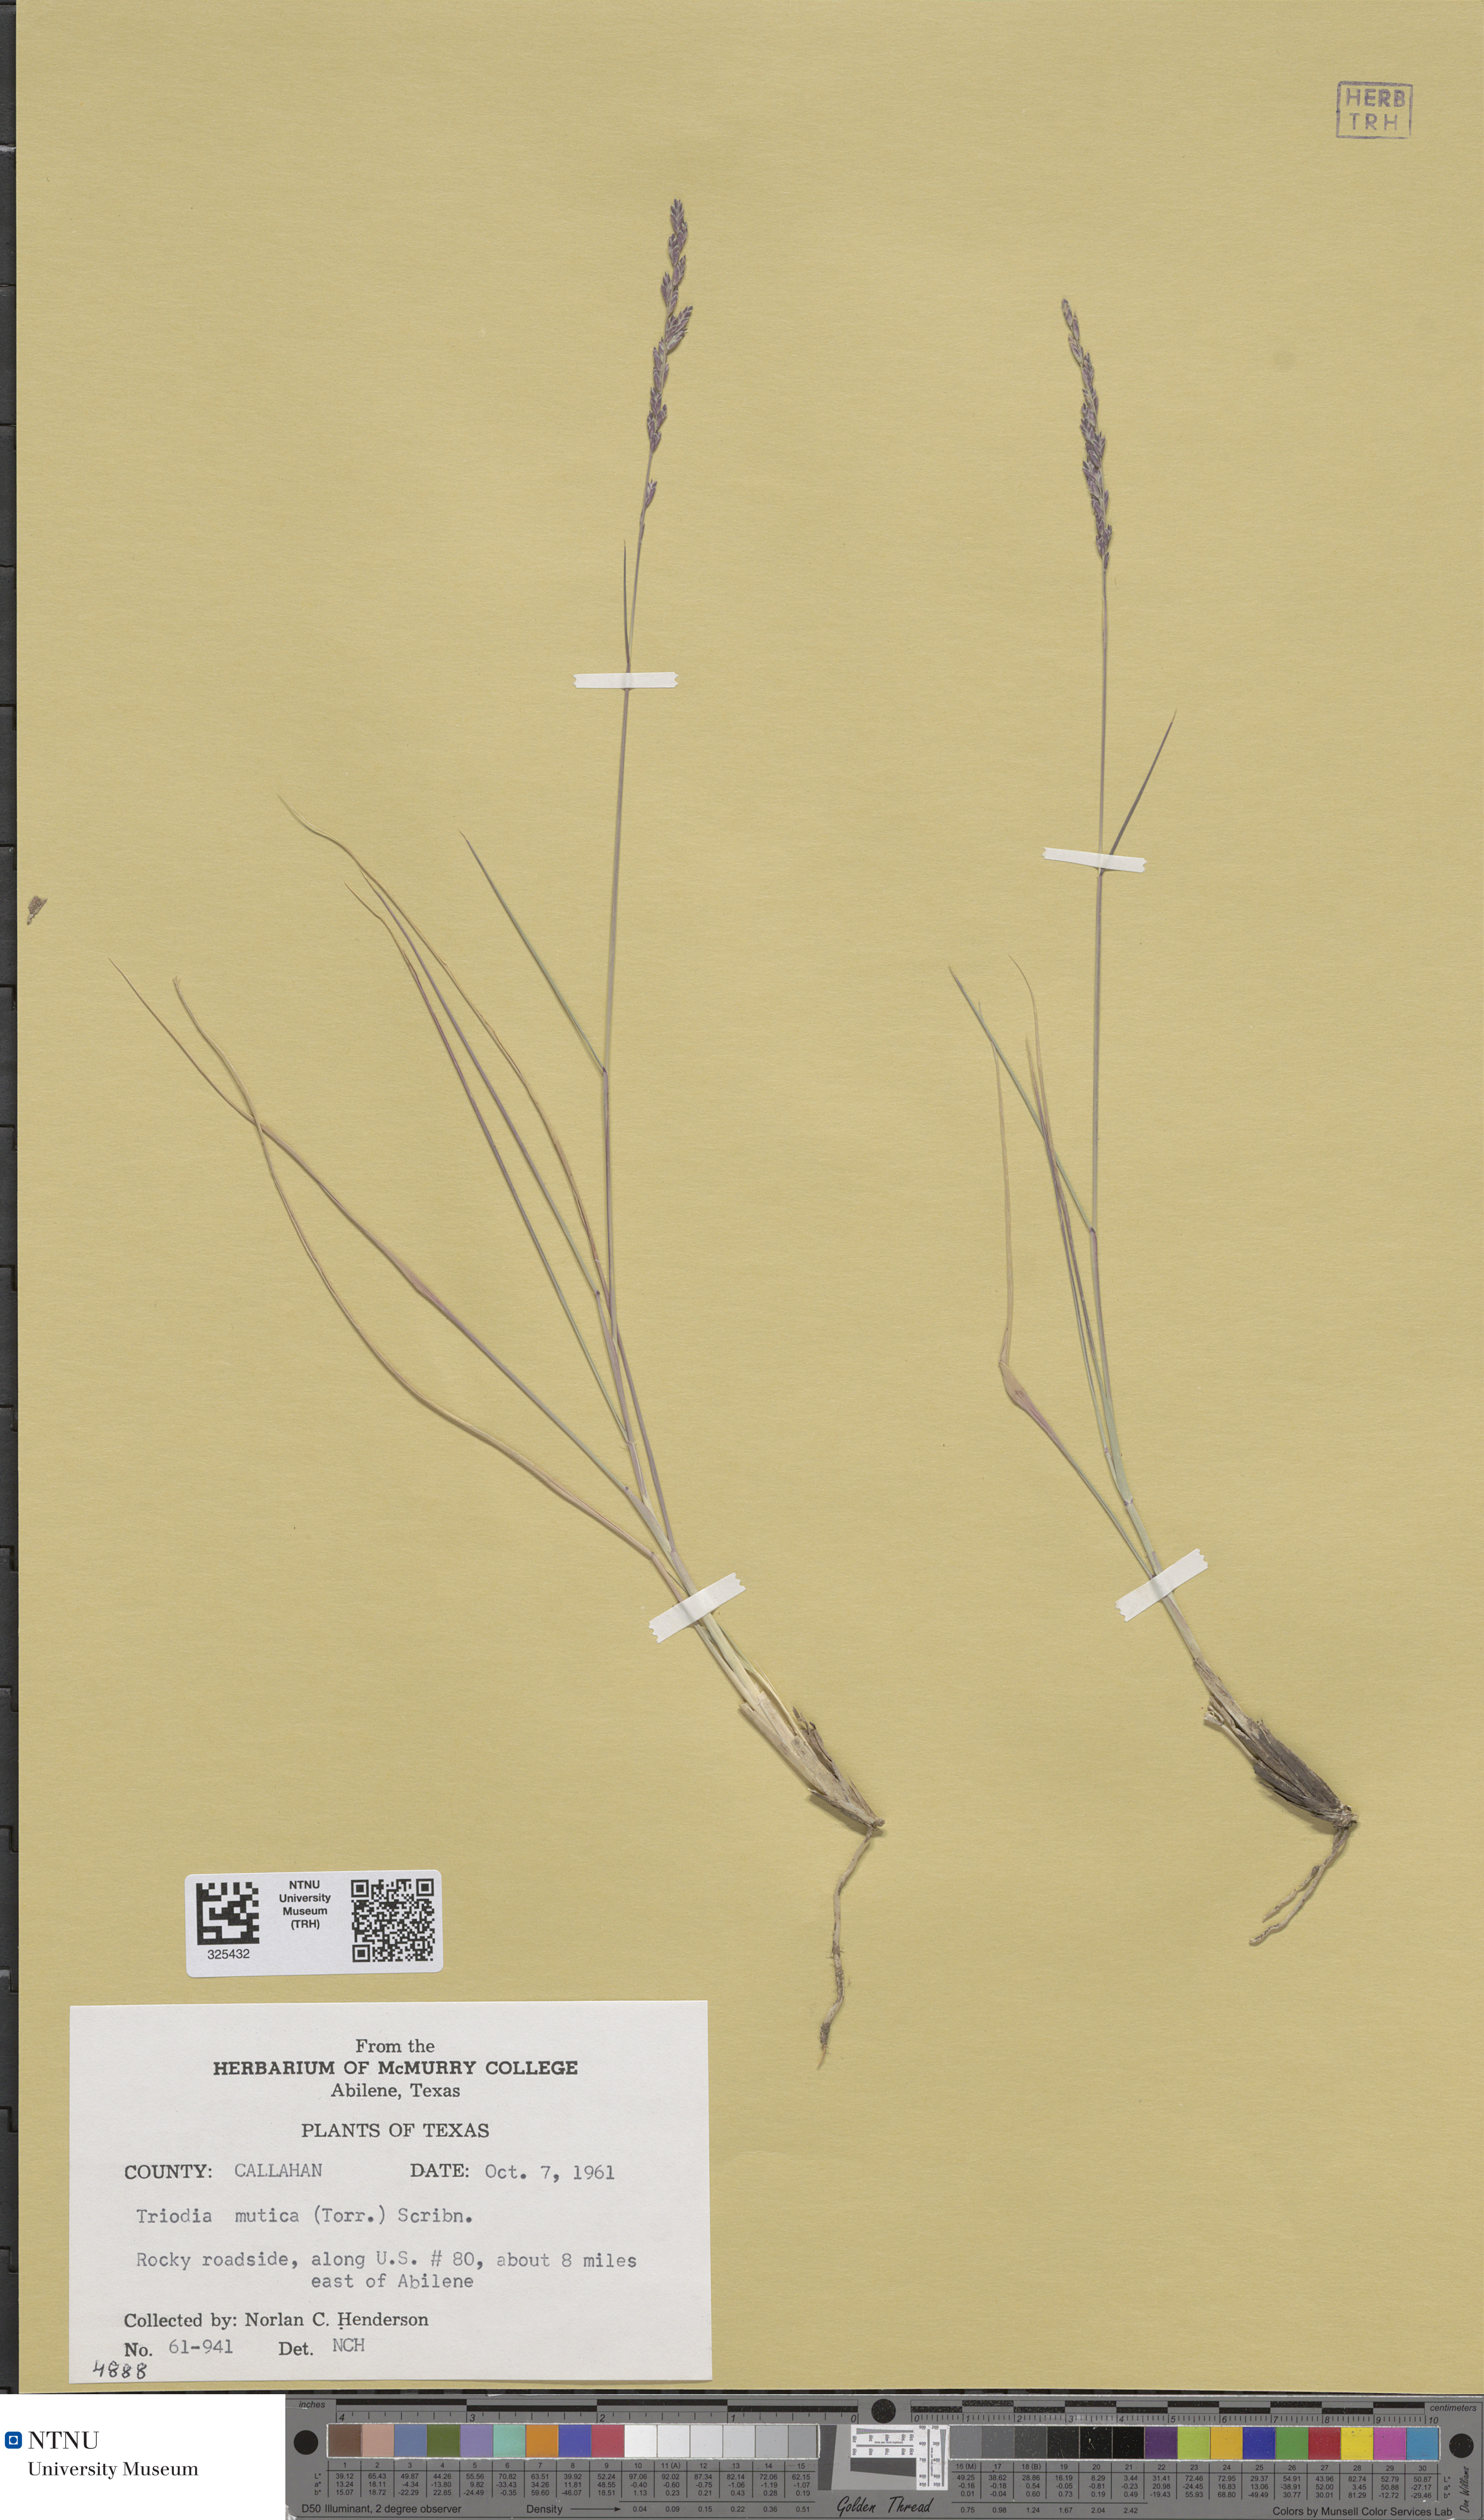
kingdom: Plantae
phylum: Tracheophyta
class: Liliopsida
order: Poales
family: Poaceae
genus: Tridentopsis
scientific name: Tridentopsis mutica
